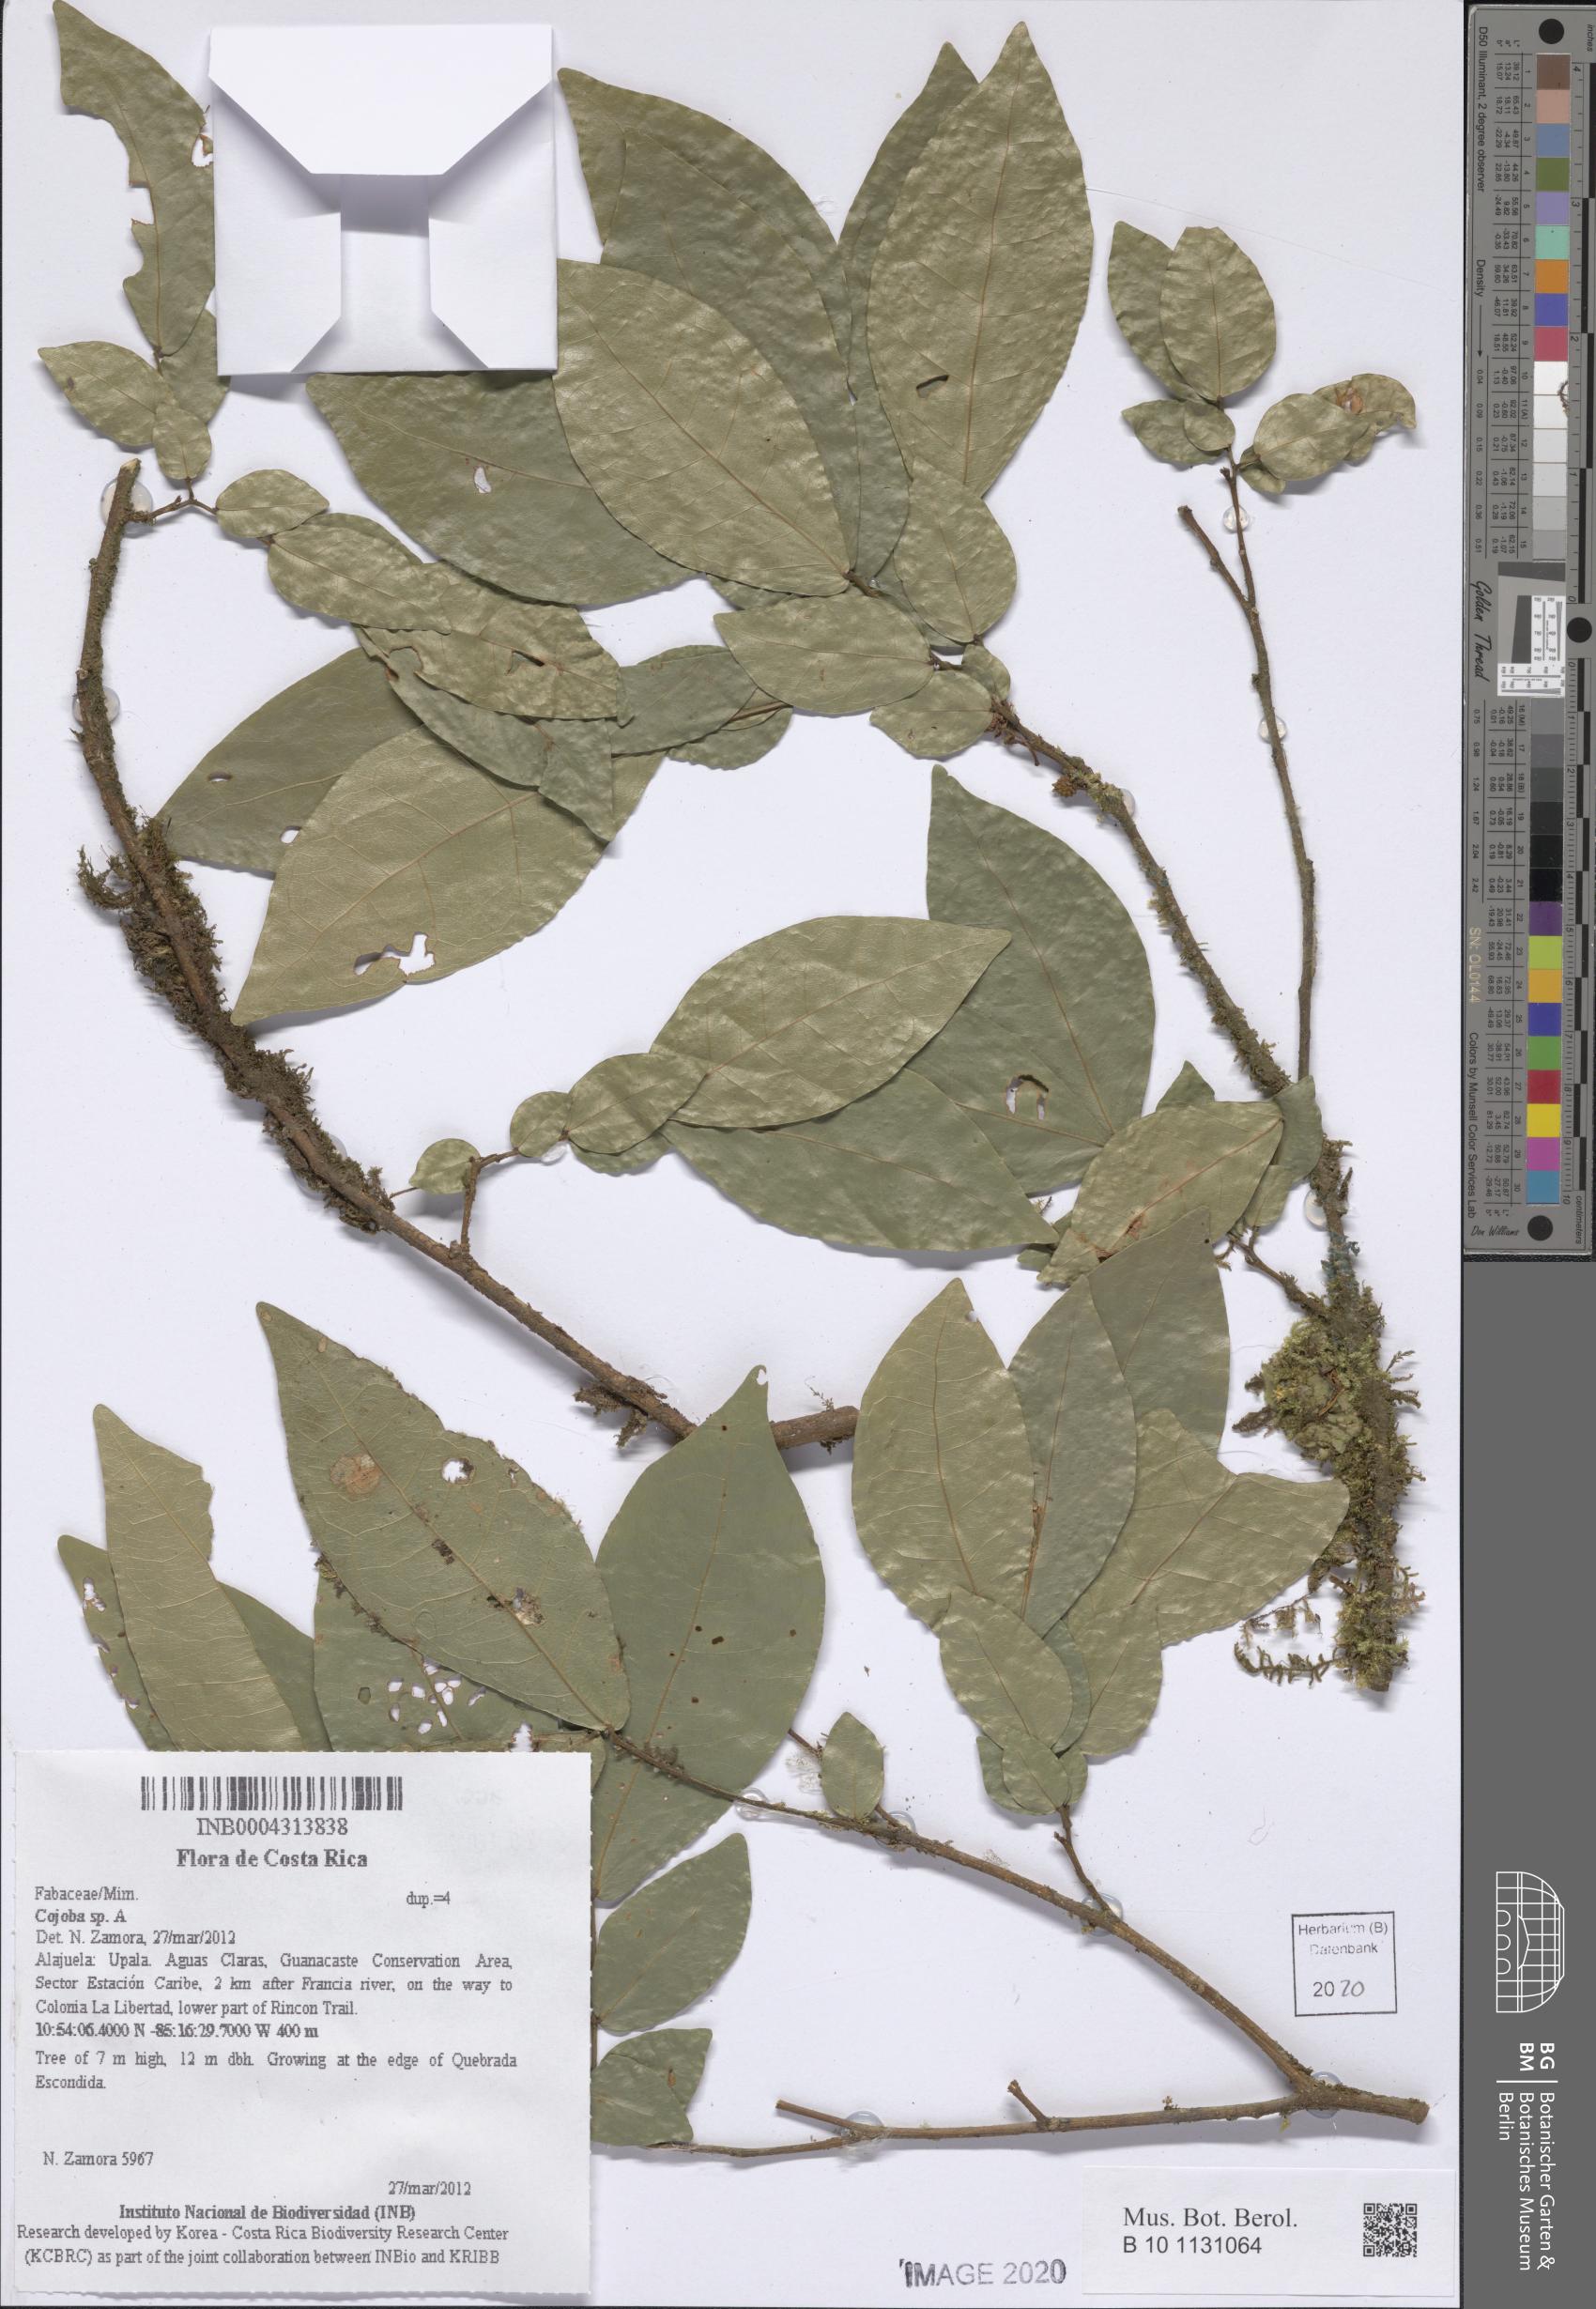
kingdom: Plantae
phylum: Tracheophyta
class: Magnoliopsida
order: Fabales
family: Fabaceae
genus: Cojoba
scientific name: Cojoba
